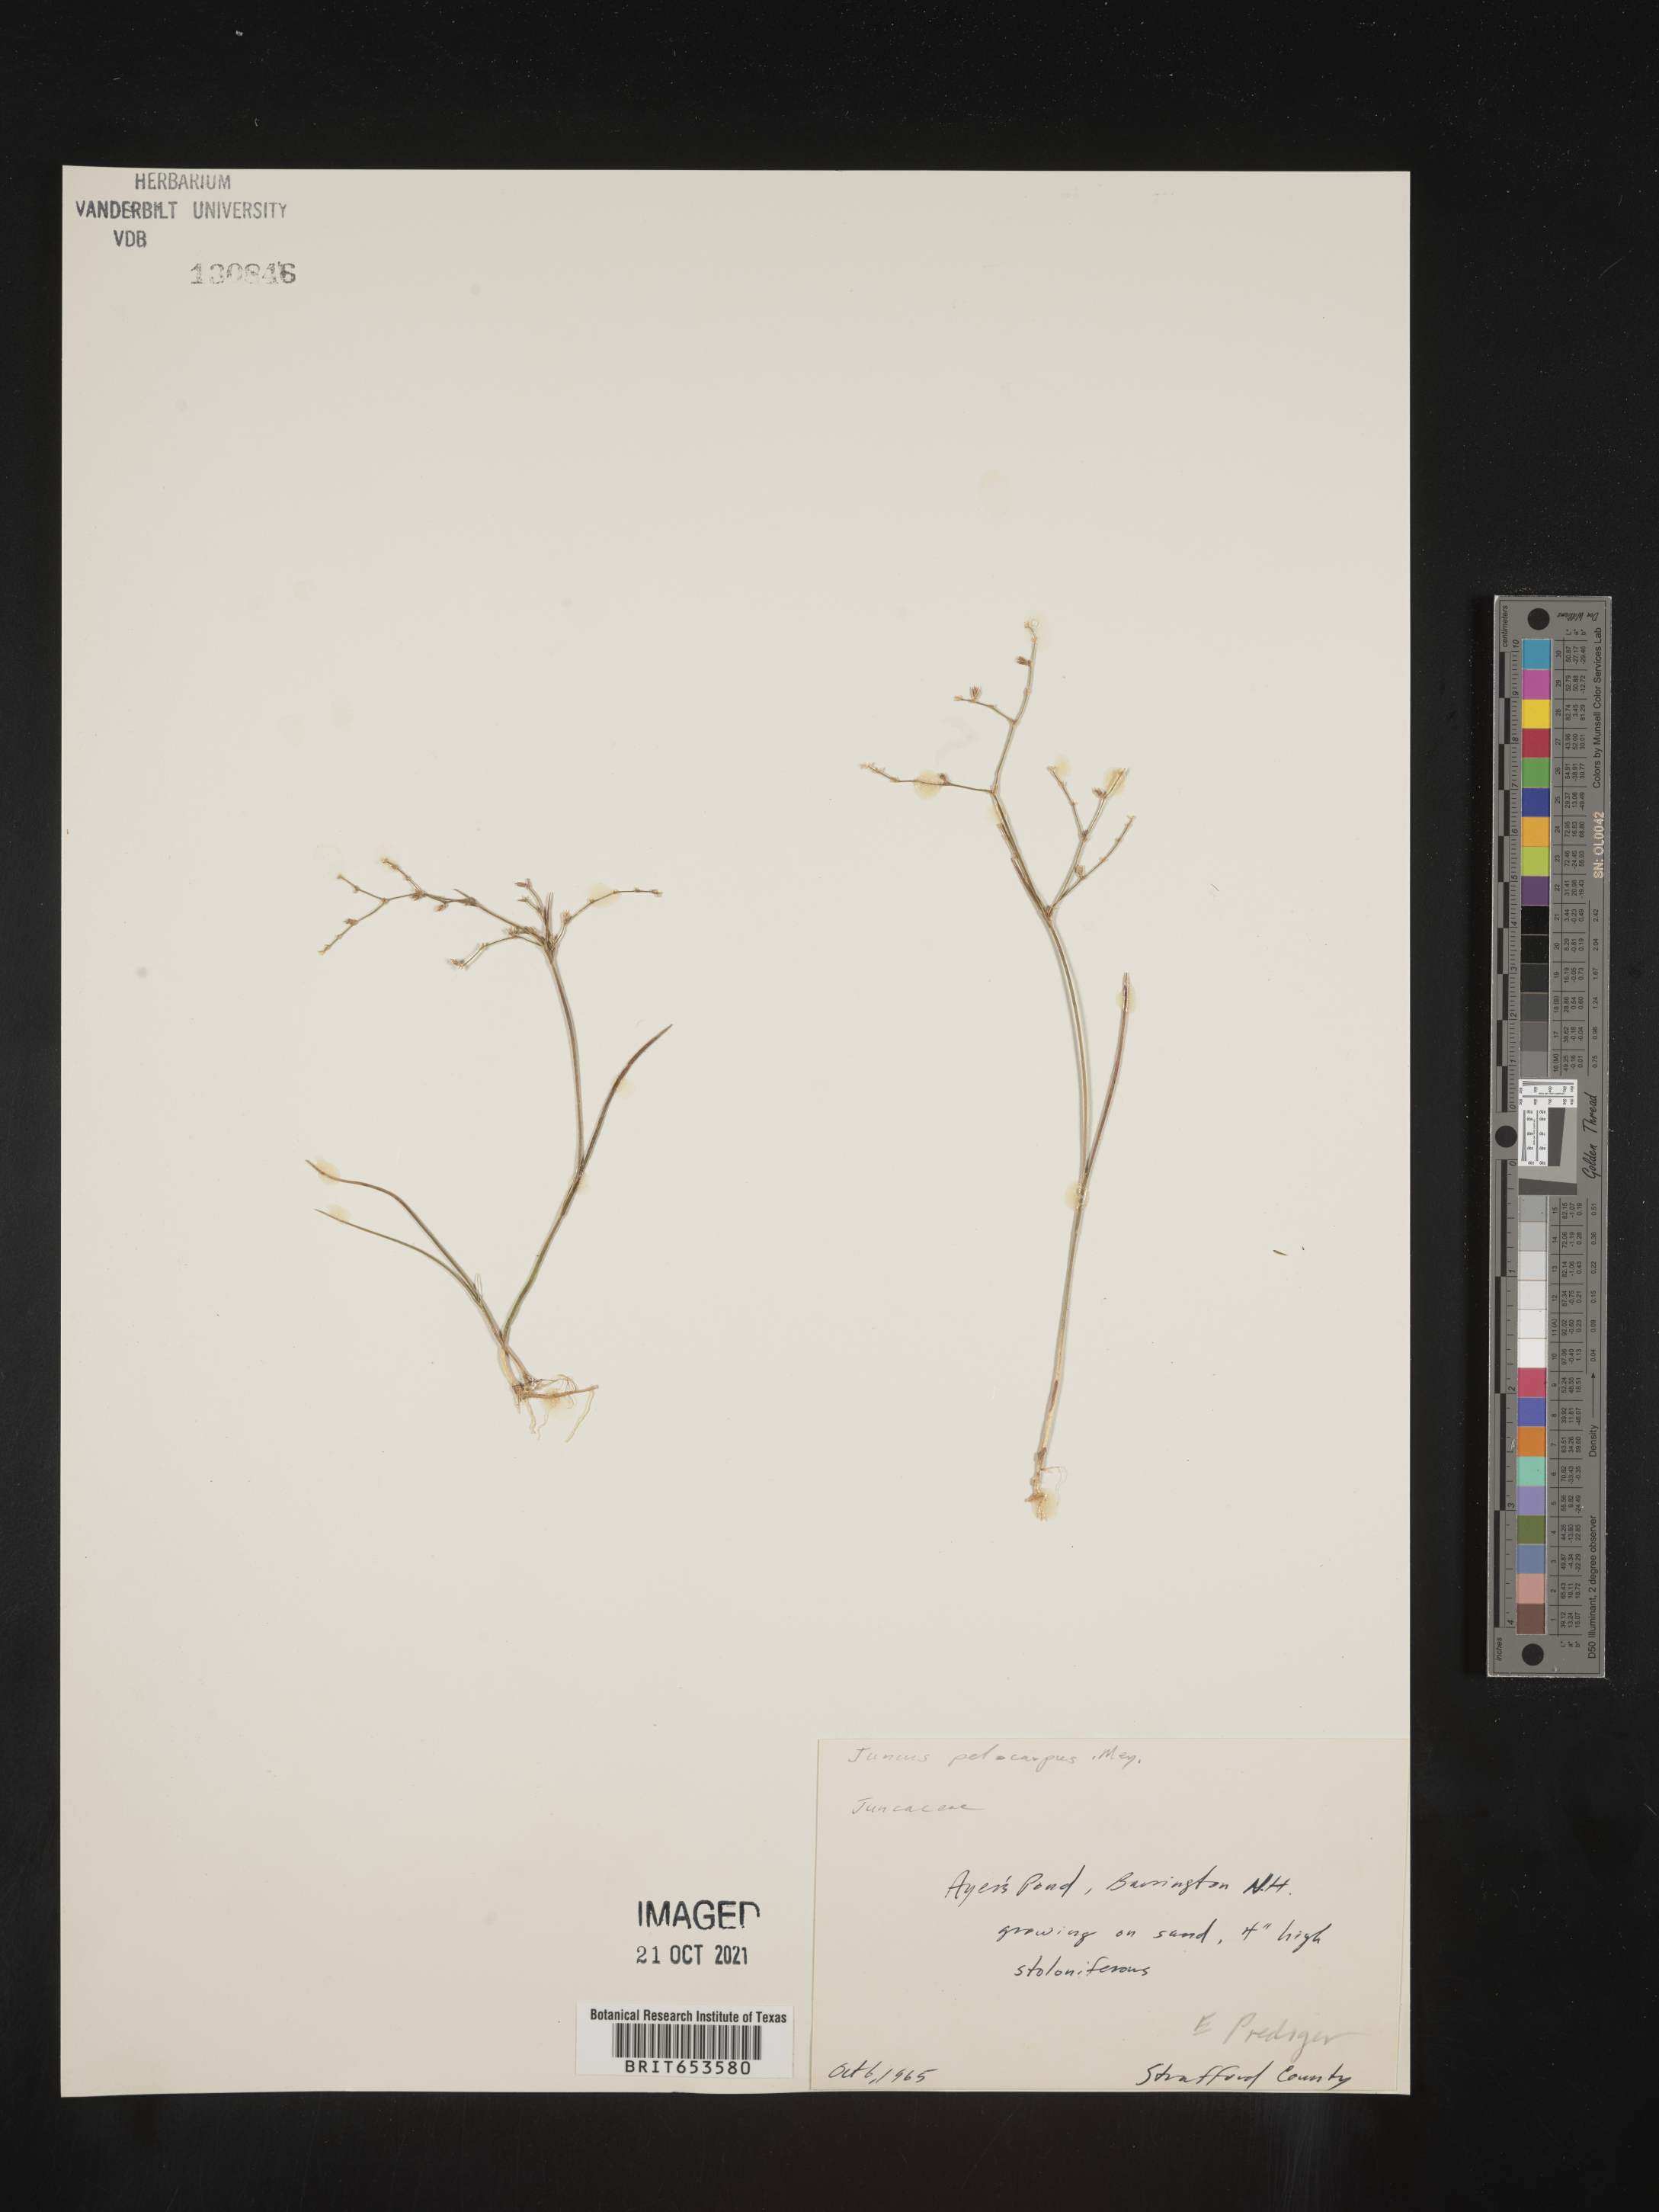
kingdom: Plantae
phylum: Tracheophyta
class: Liliopsida
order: Poales
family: Juncaceae
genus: Juncus
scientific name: Juncus pelocarpus
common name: Brown-fruited rush
